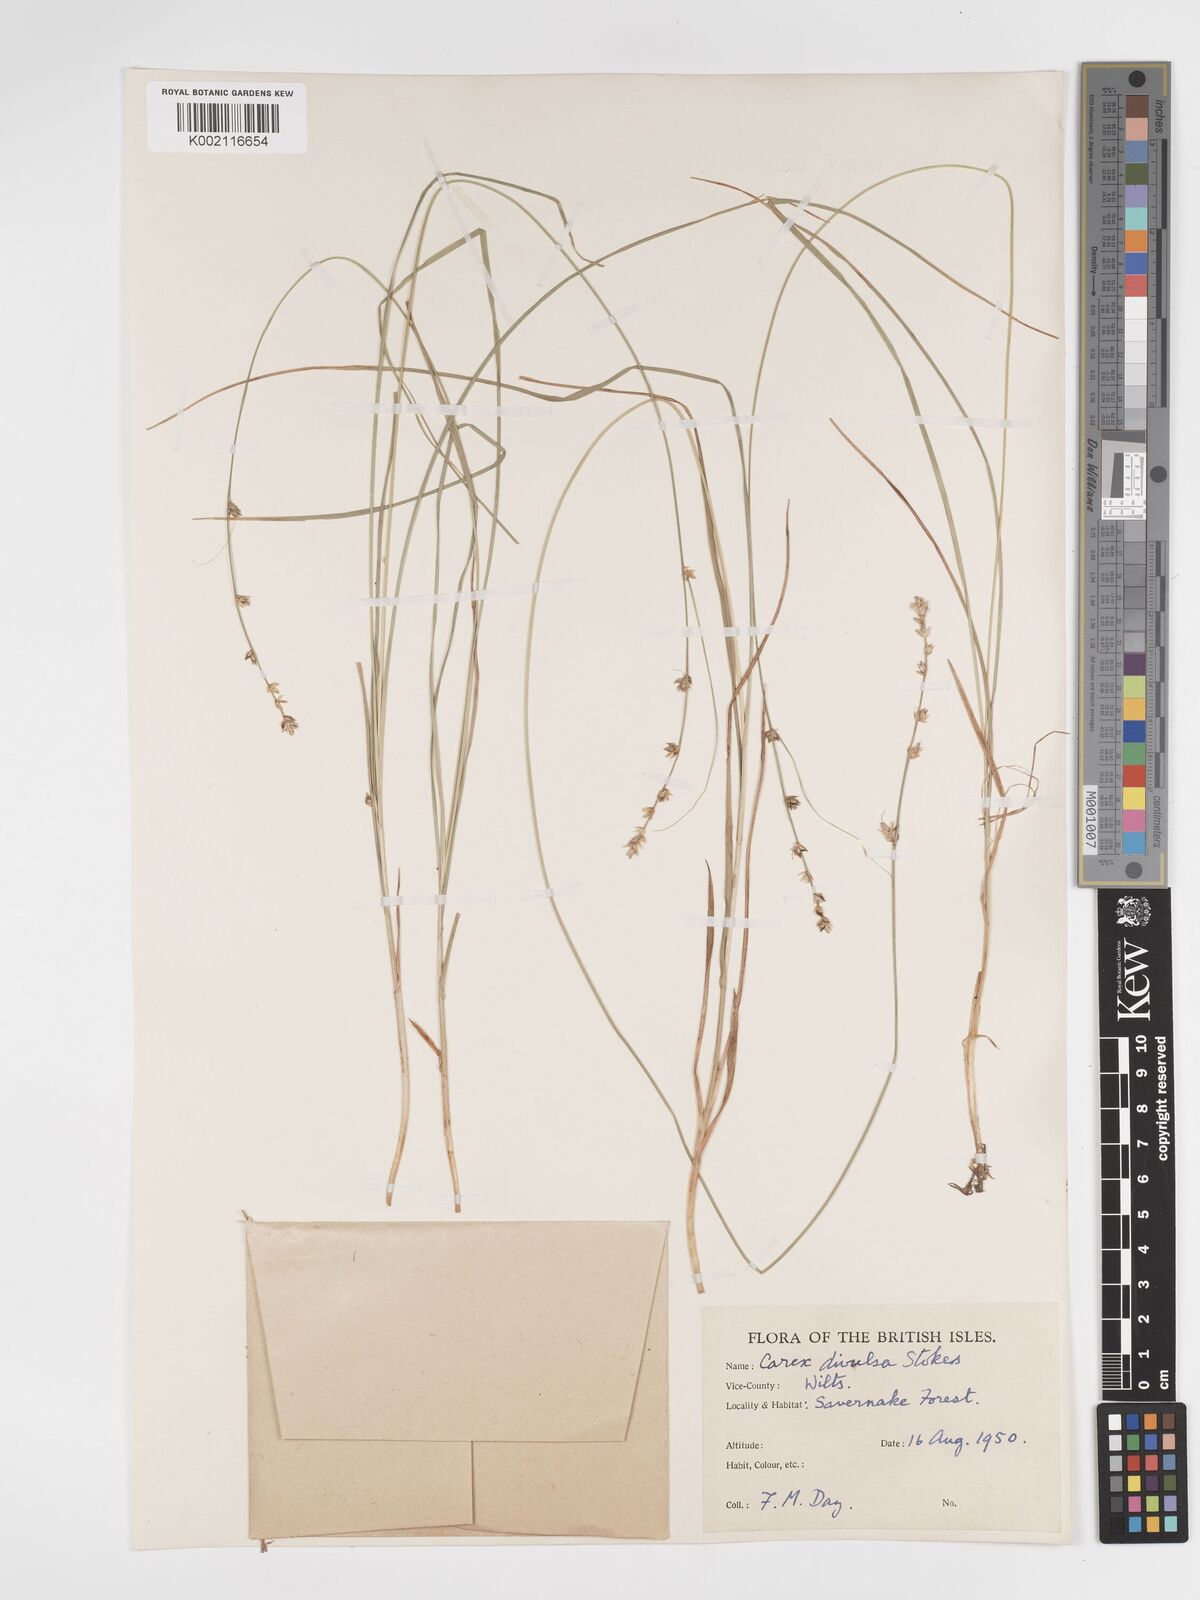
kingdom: Plantae
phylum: Tracheophyta
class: Liliopsida
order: Poales
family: Cyperaceae
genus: Carex
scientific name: Carex divulsa
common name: Grassland sedge
